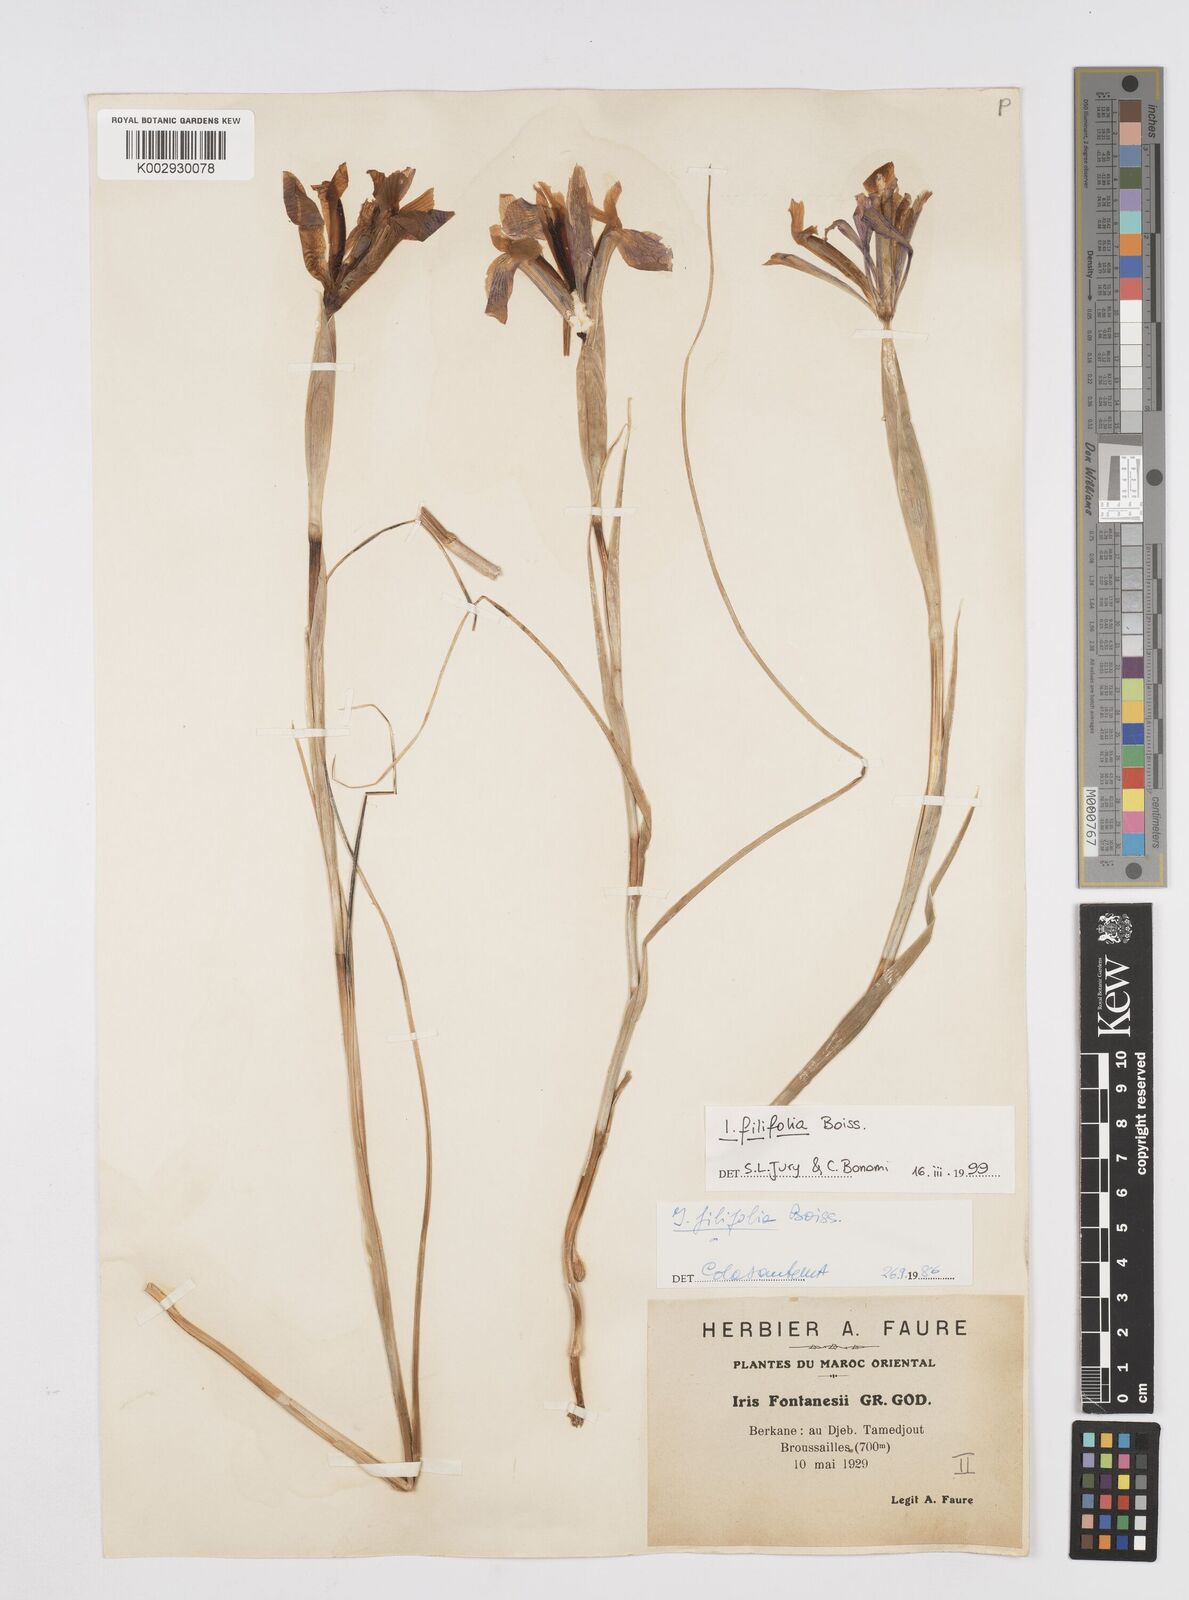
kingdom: Plantae
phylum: Tracheophyta
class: Liliopsida
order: Asparagales
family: Iridaceae
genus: Iris
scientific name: Iris tingitana
